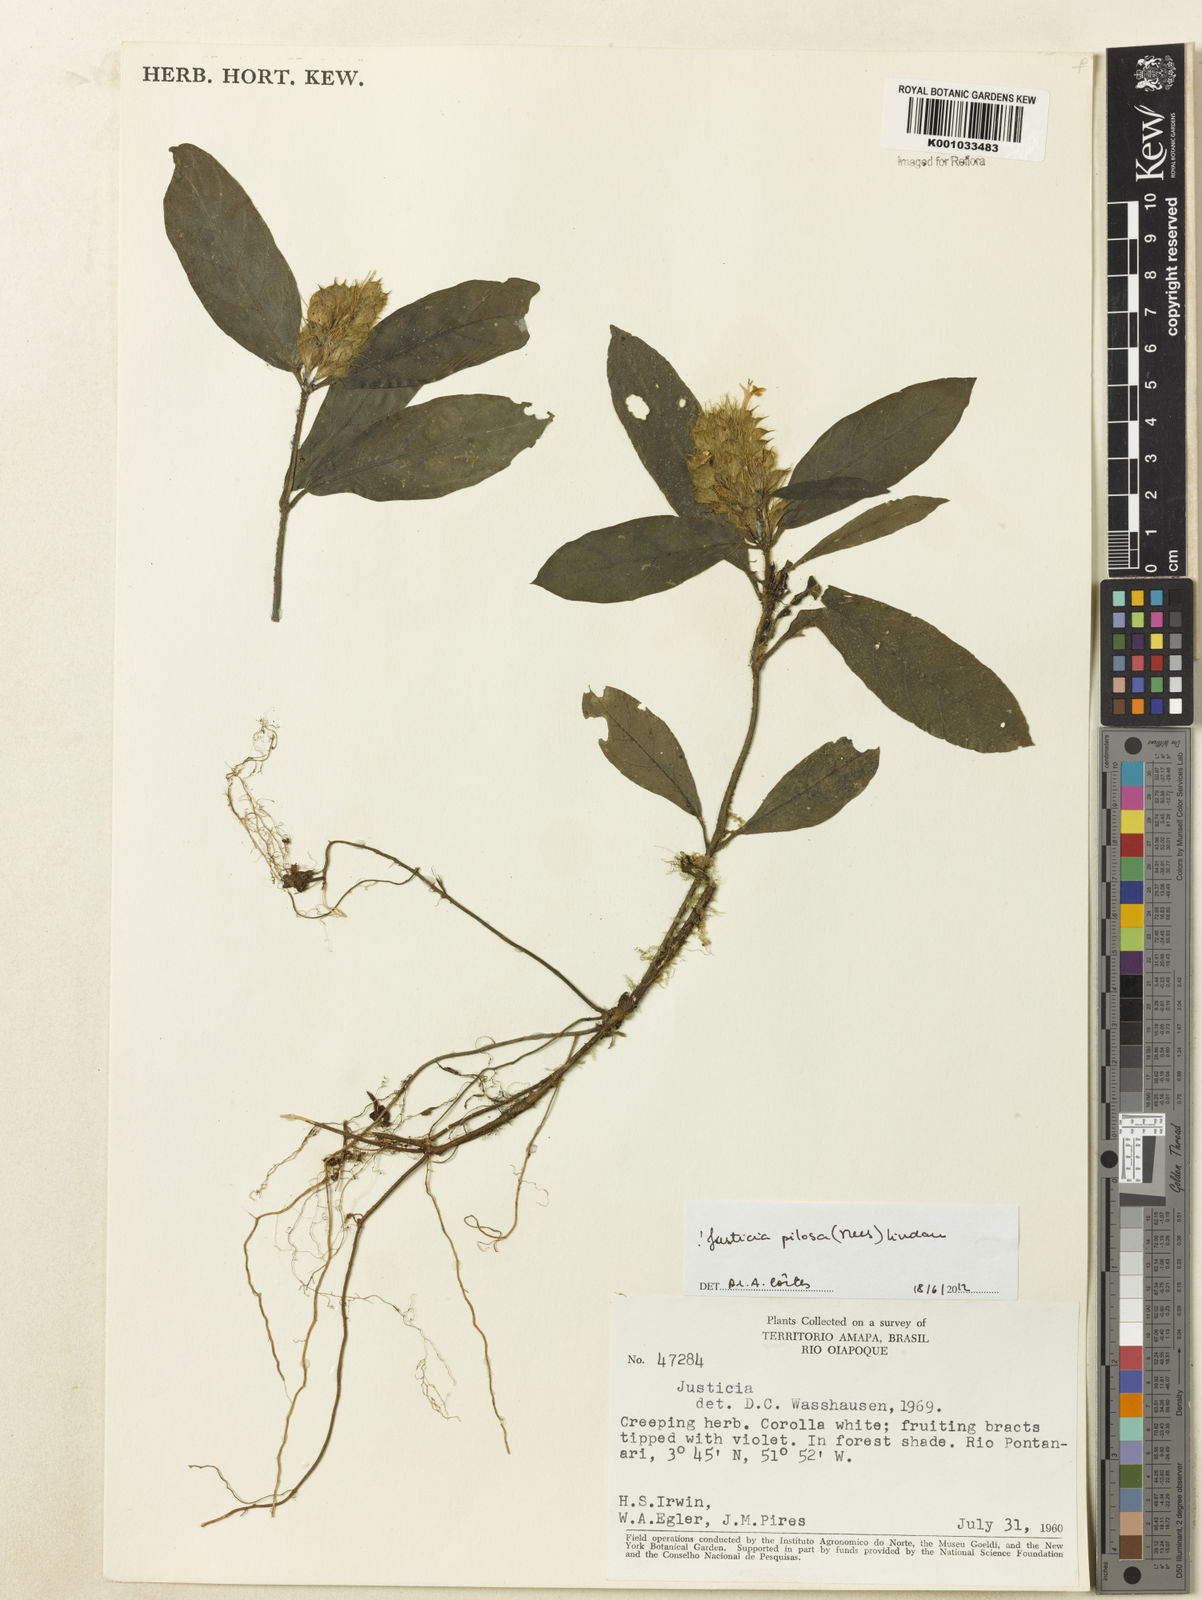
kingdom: Plantae
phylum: Tracheophyta
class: Magnoliopsida
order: Lamiales
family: Acanthaceae
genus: Justicia
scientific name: Justicia pilosa
